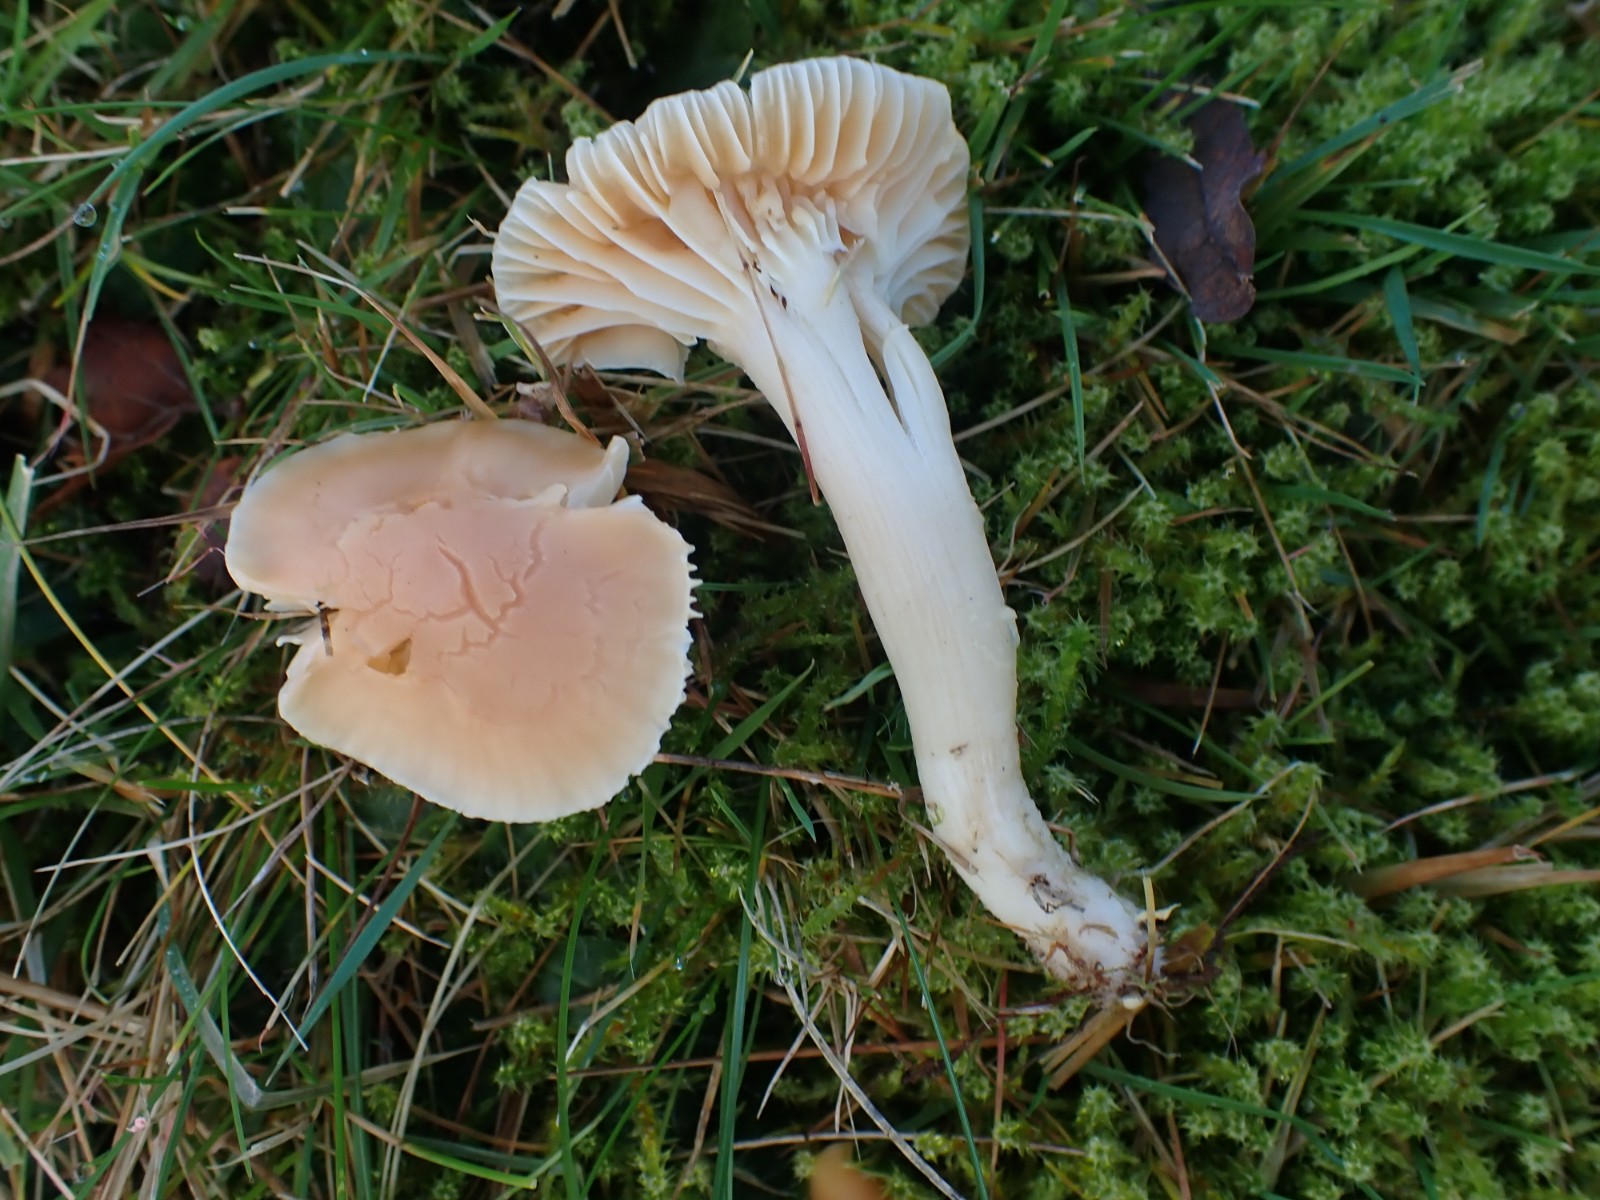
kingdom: Fungi
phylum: Basidiomycota
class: Agaricomycetes
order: Agaricales
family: Hygrophoraceae
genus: Cuphophyllus
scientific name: Cuphophyllus pratensis
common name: eng-vokshat
